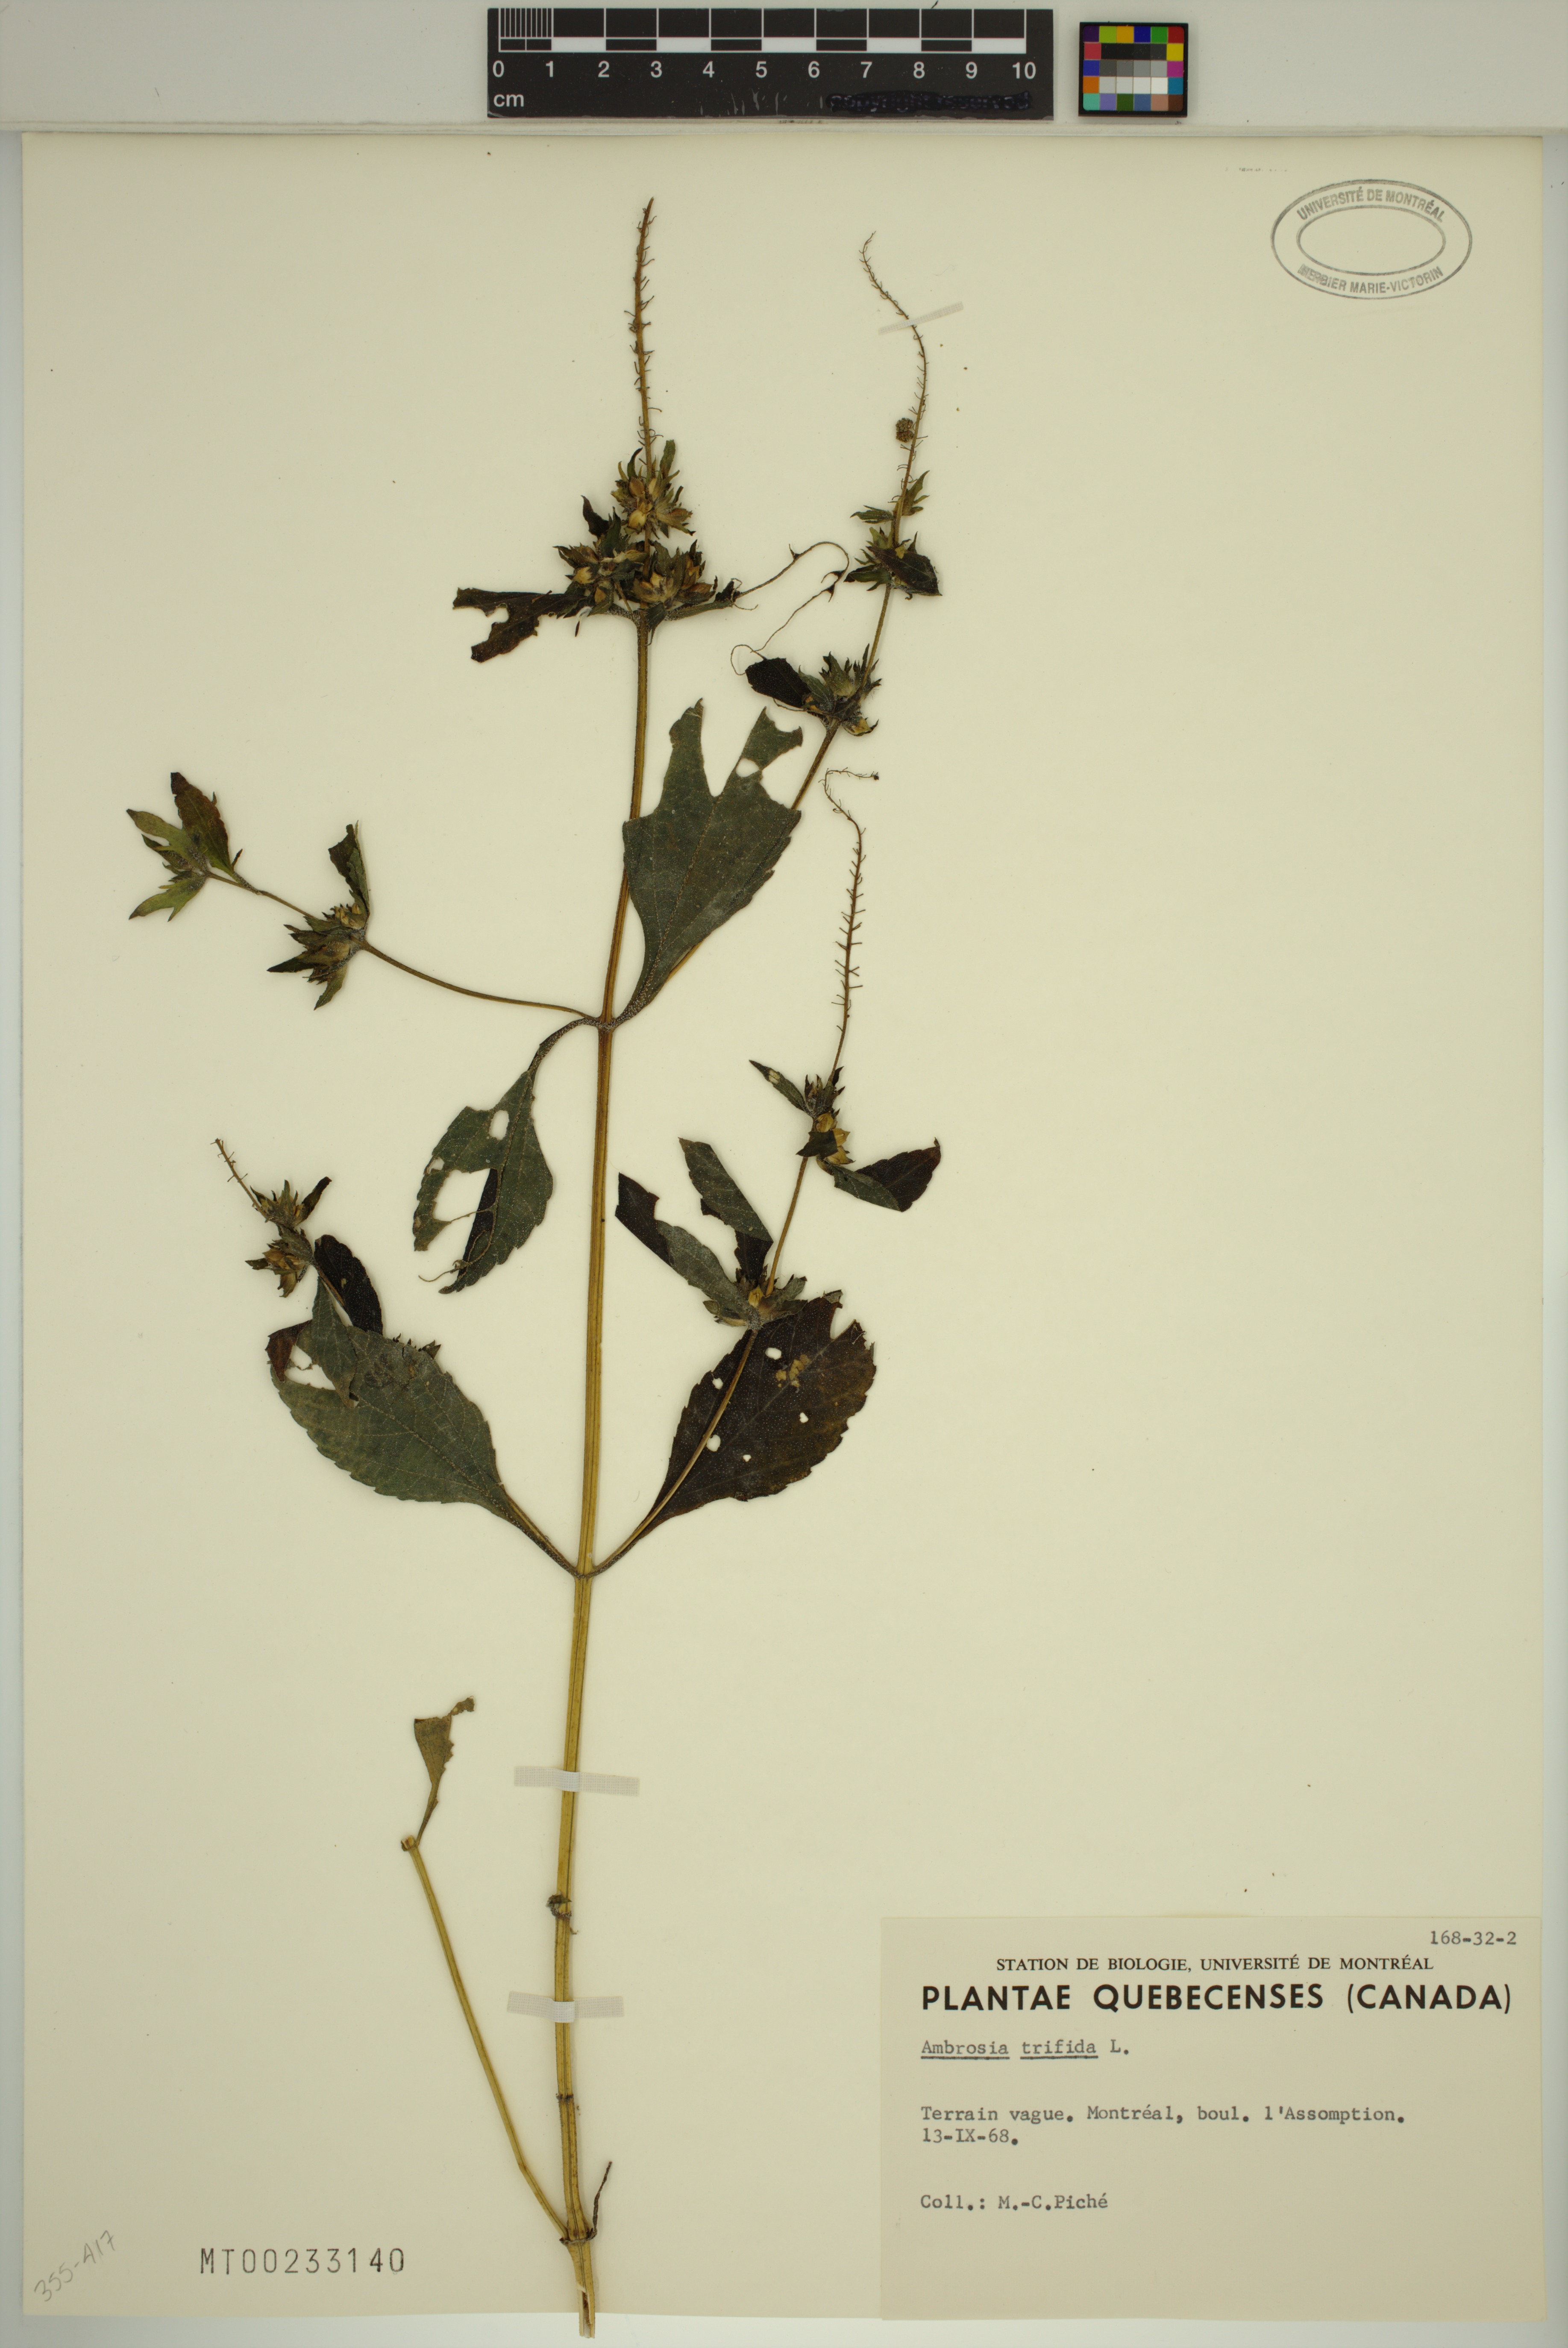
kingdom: Plantae
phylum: Tracheophyta
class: Magnoliopsida
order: Asterales
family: Asteraceae
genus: Ambrosia
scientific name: Ambrosia trifida
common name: Giant ragweed
